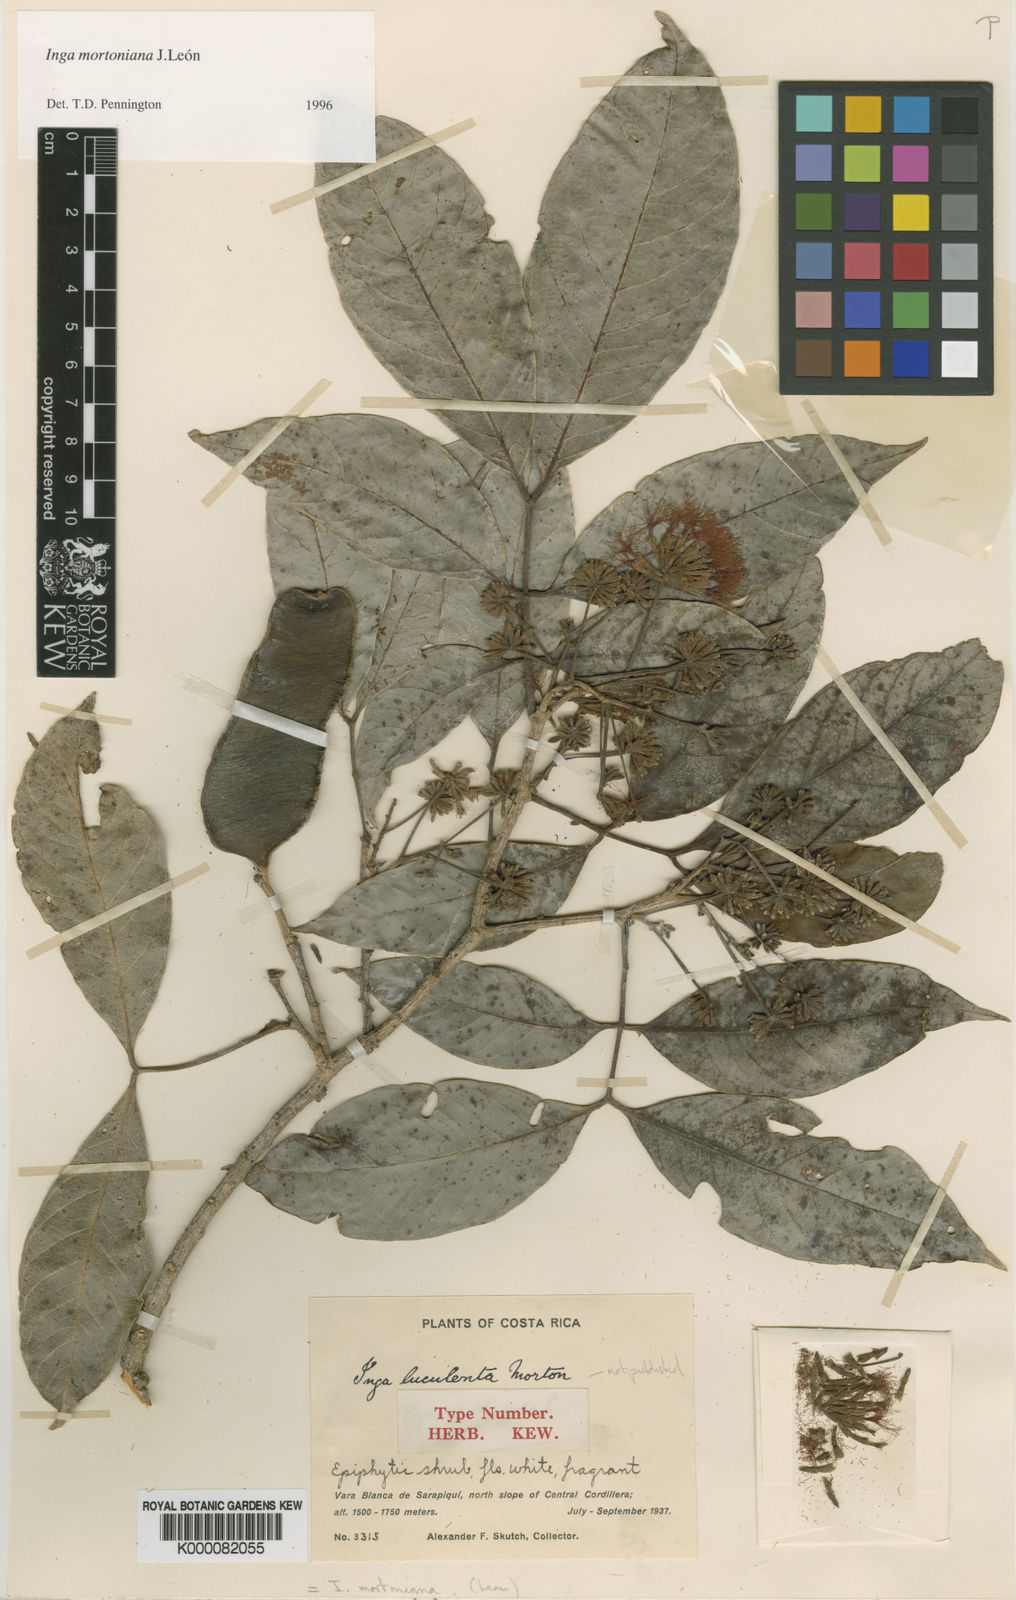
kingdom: Plantae
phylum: Tracheophyta
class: Magnoliopsida
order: Fabales
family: Fabaceae
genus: Inga
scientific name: Inga mortoniana
